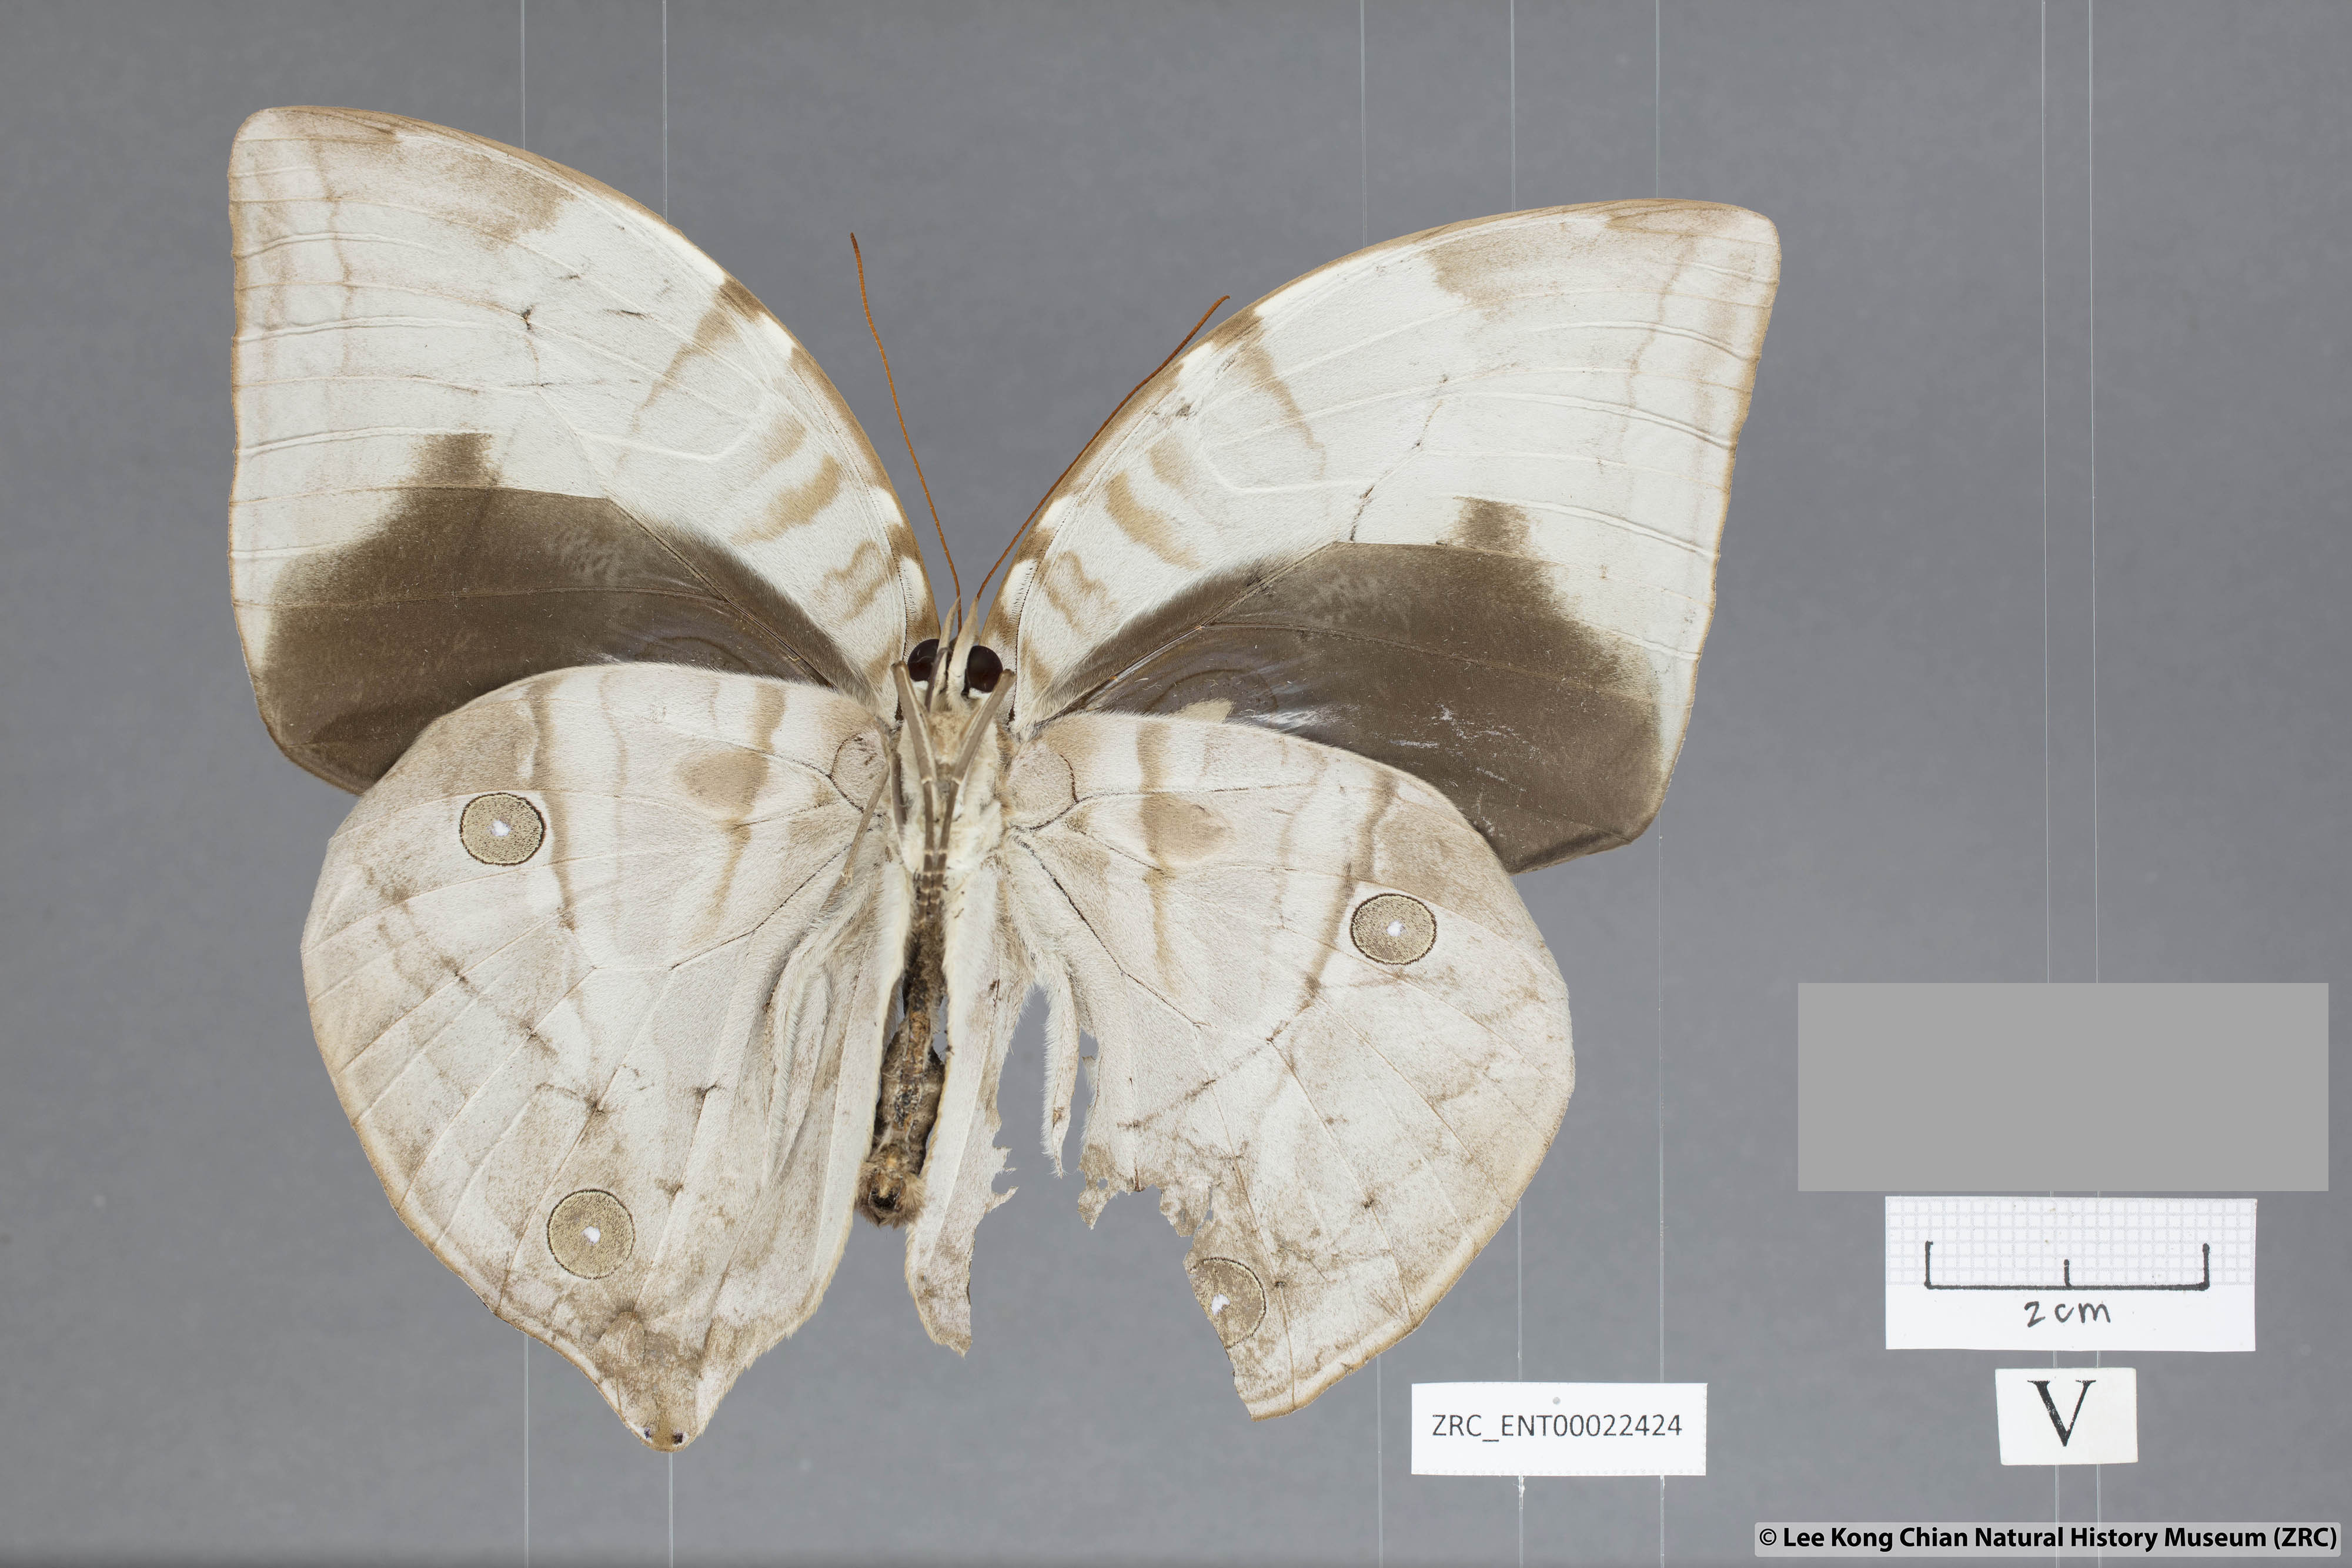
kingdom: Animalia
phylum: Arthropoda
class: Insecta
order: Lepidoptera
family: Nymphalidae
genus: Zeuxidia
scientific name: Zeuxidia aurelia
